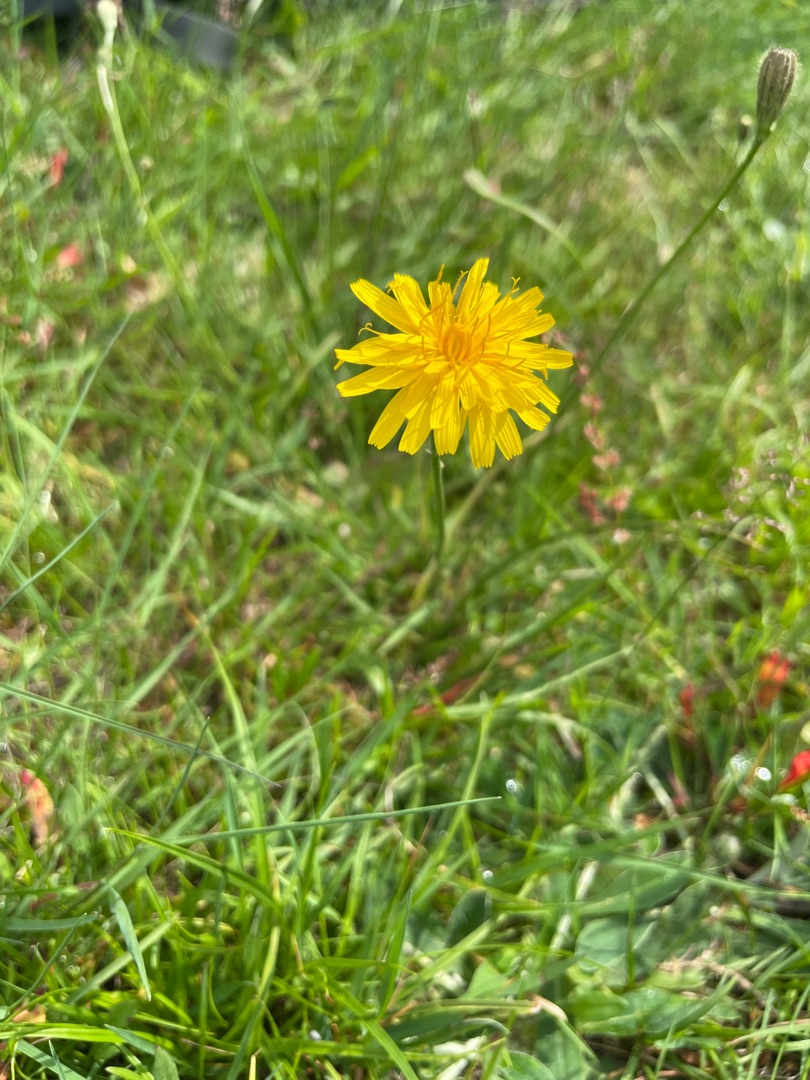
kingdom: Plantae
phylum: Tracheophyta
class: Magnoliopsida
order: Asterales
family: Asteraceae
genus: Scorzoneroides
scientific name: Scorzoneroides autumnalis
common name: Høst-borst
